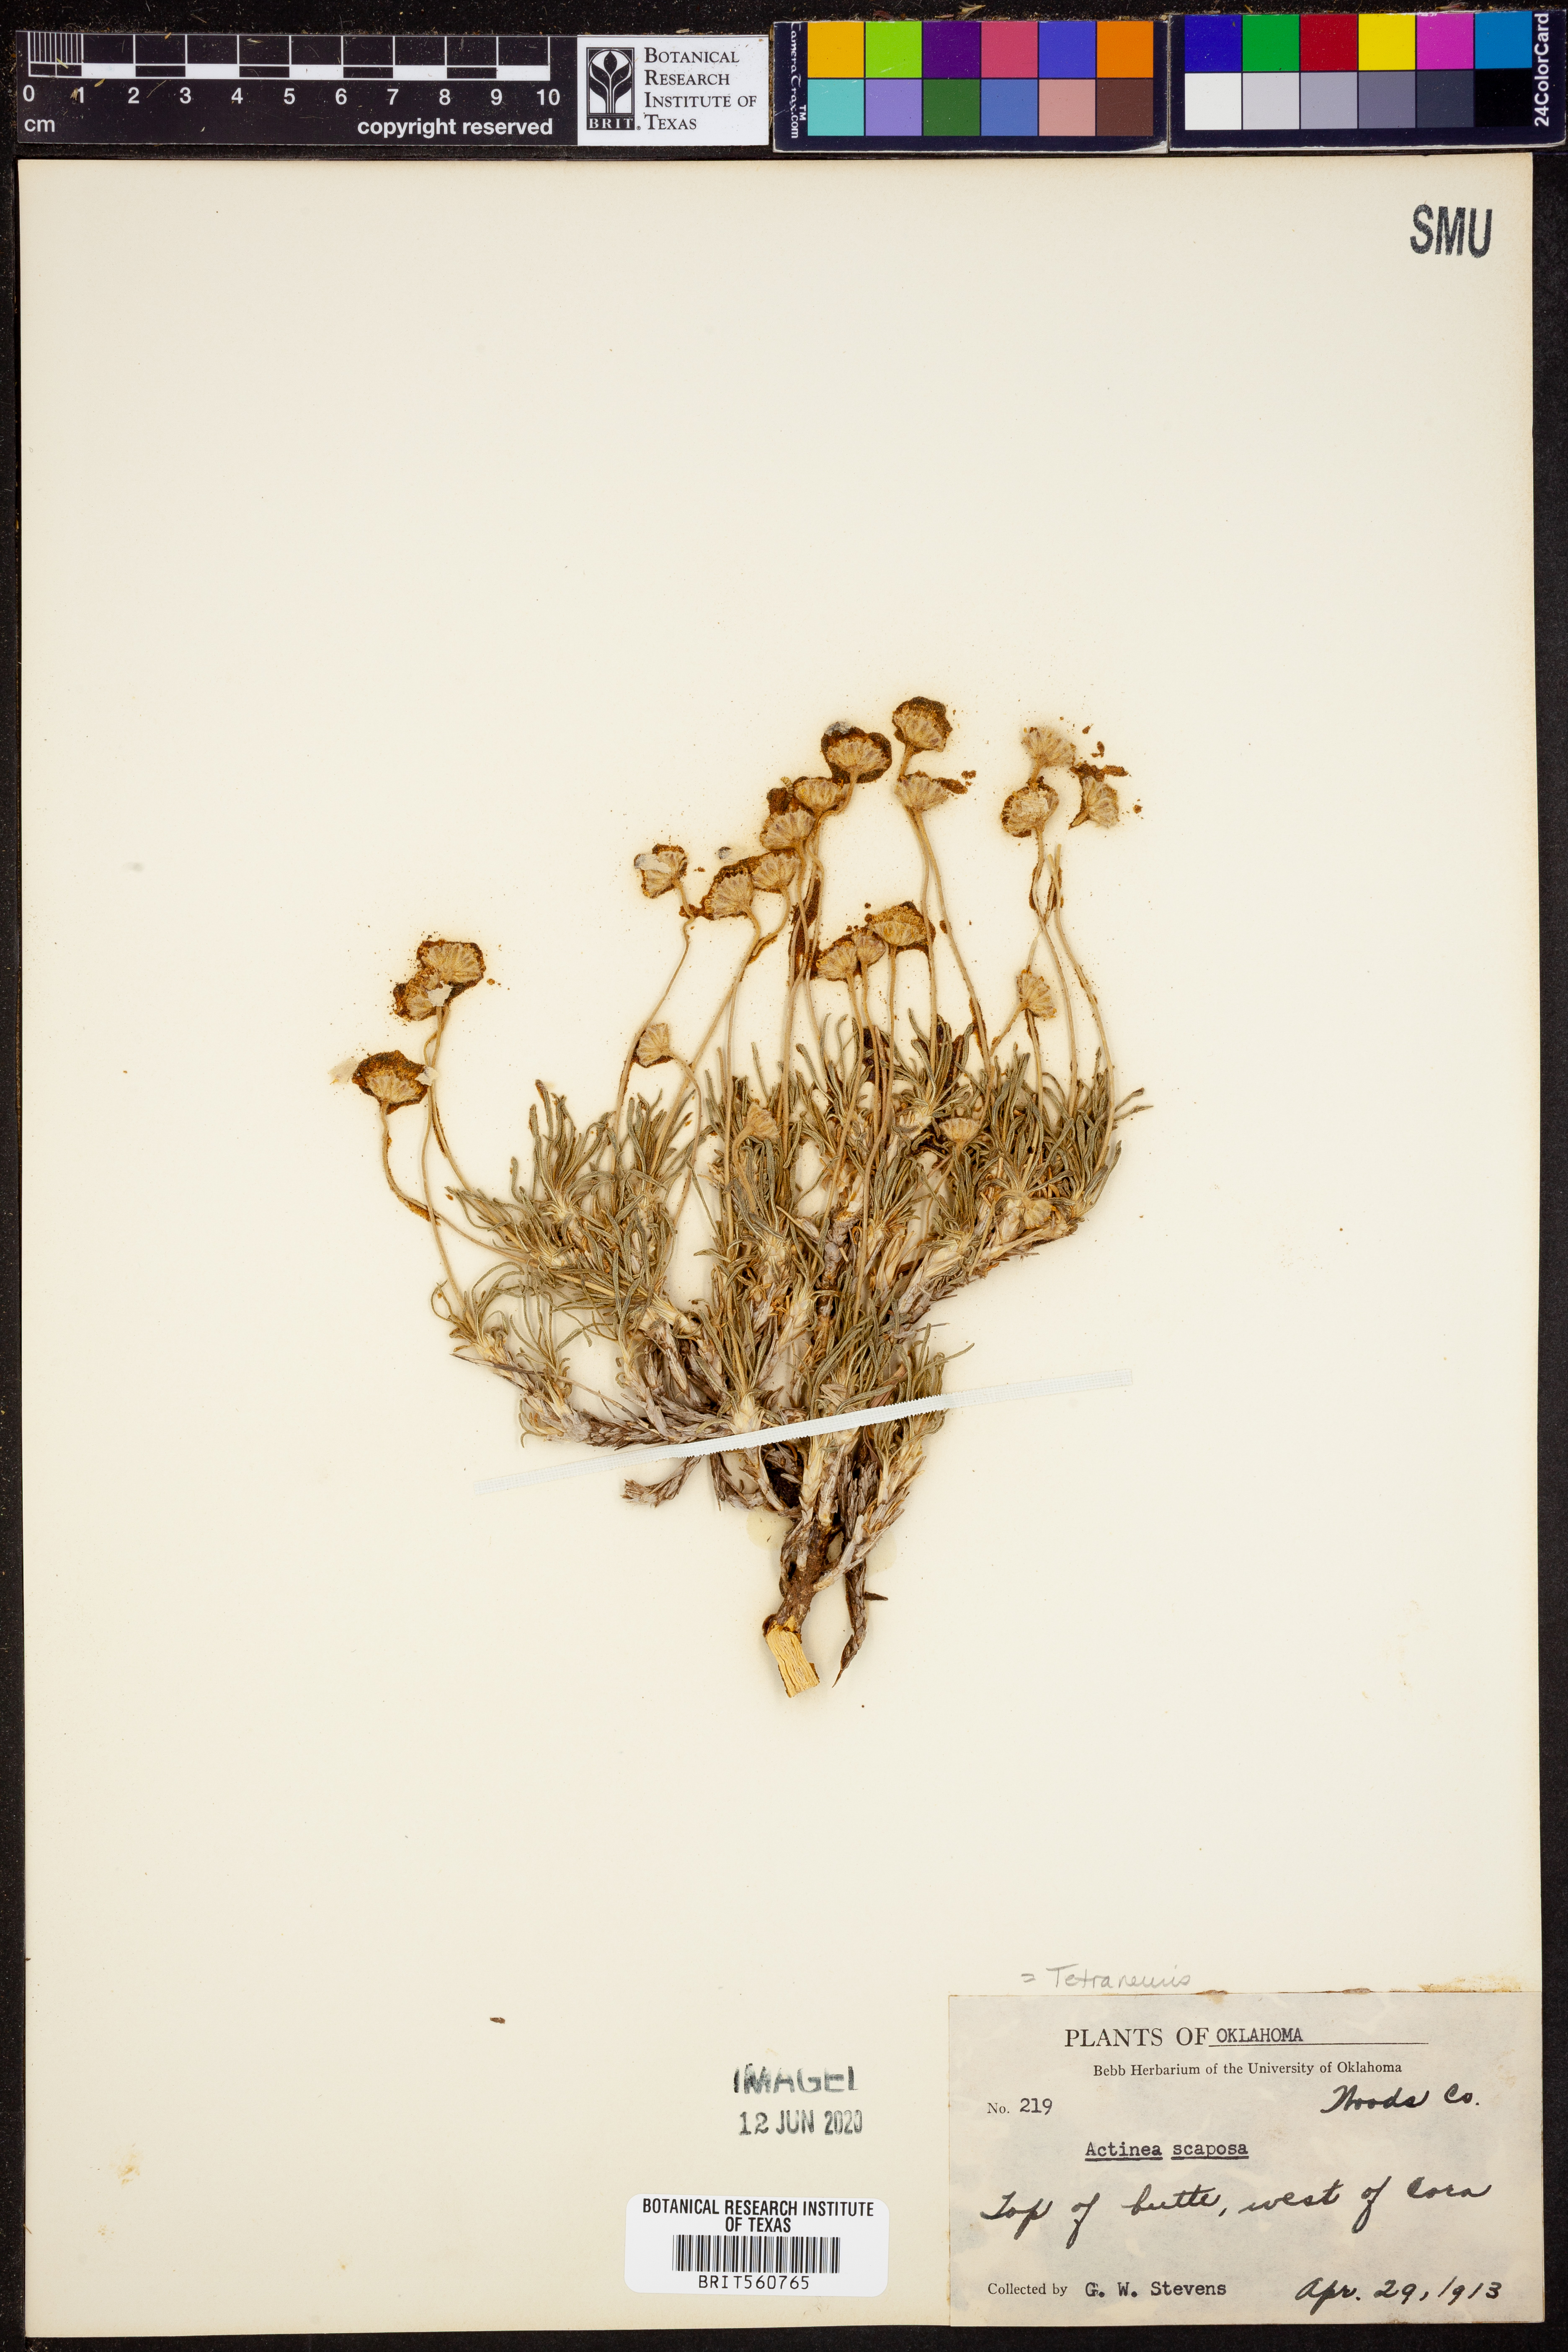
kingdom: Plantae
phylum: Tracheophyta
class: Magnoliopsida
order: Asterales
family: Asteraceae
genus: Tetraneuris
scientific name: Tetraneuris scaposa
